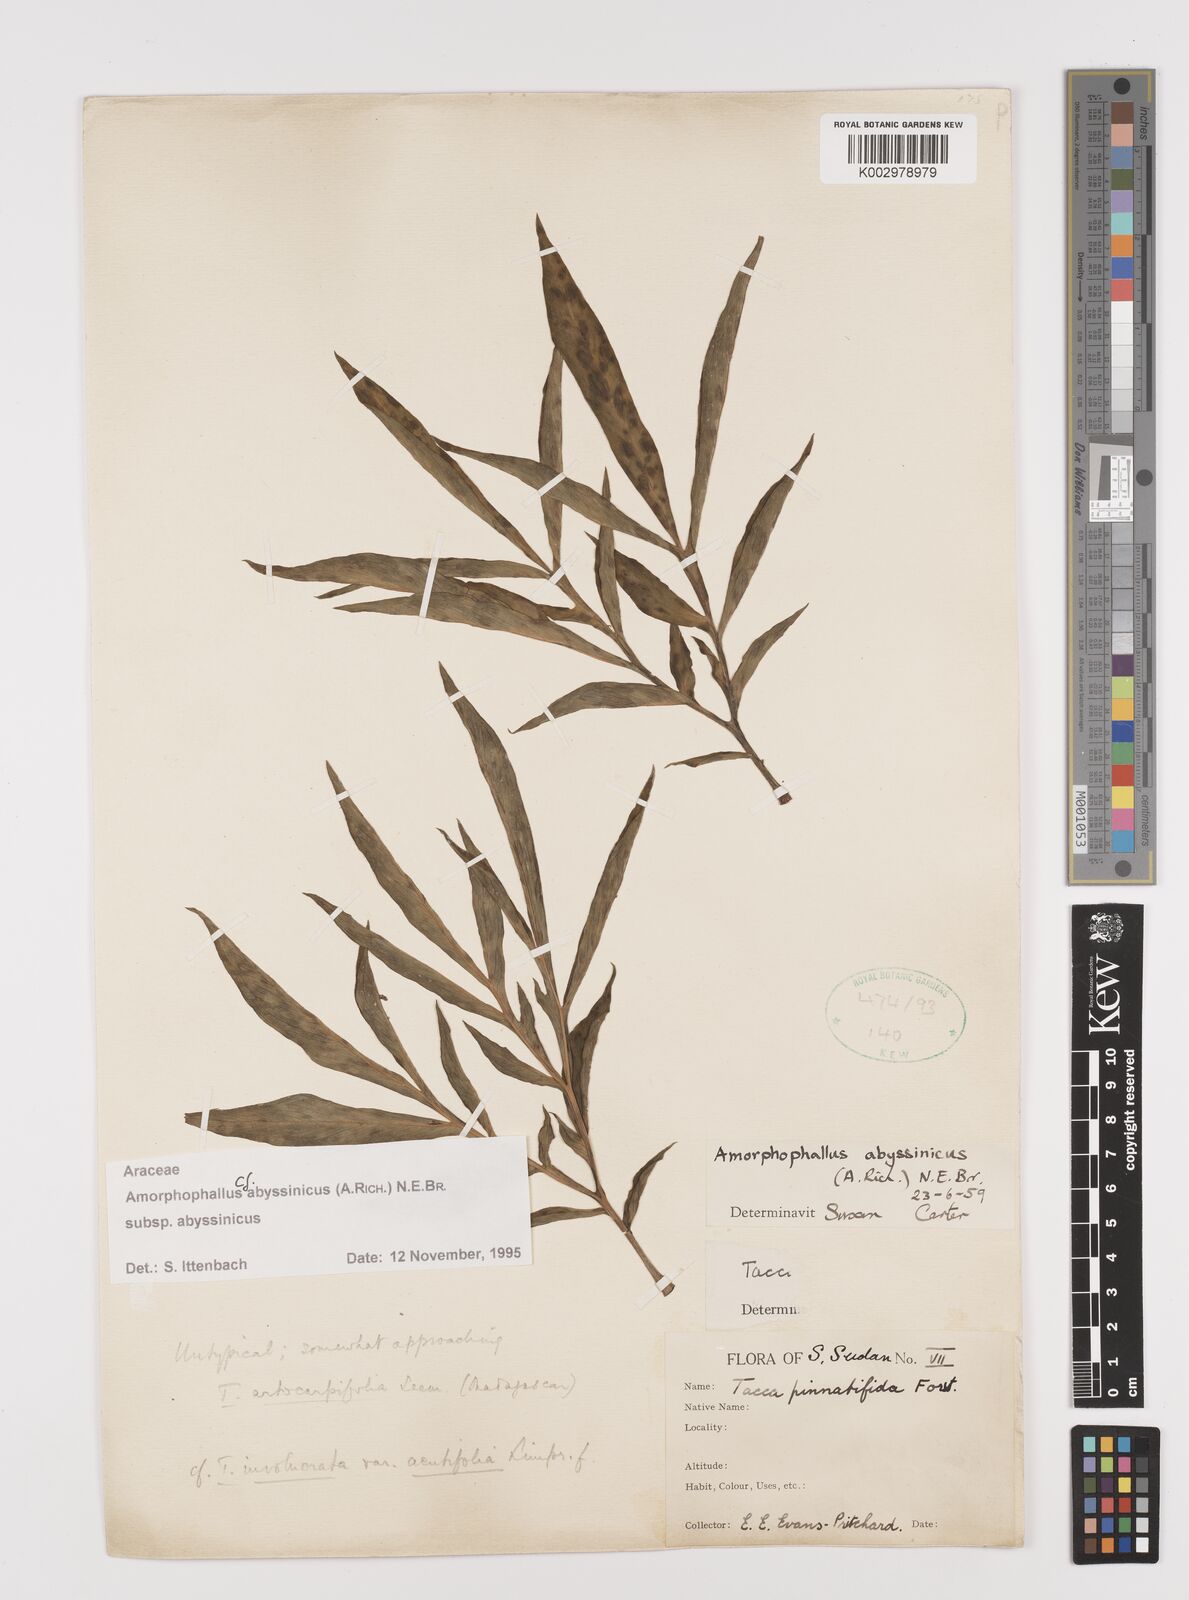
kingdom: Plantae
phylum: Tracheophyta
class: Liliopsida
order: Alismatales
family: Araceae
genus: Amorphophallus
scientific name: Amorphophallus abyssinicus
